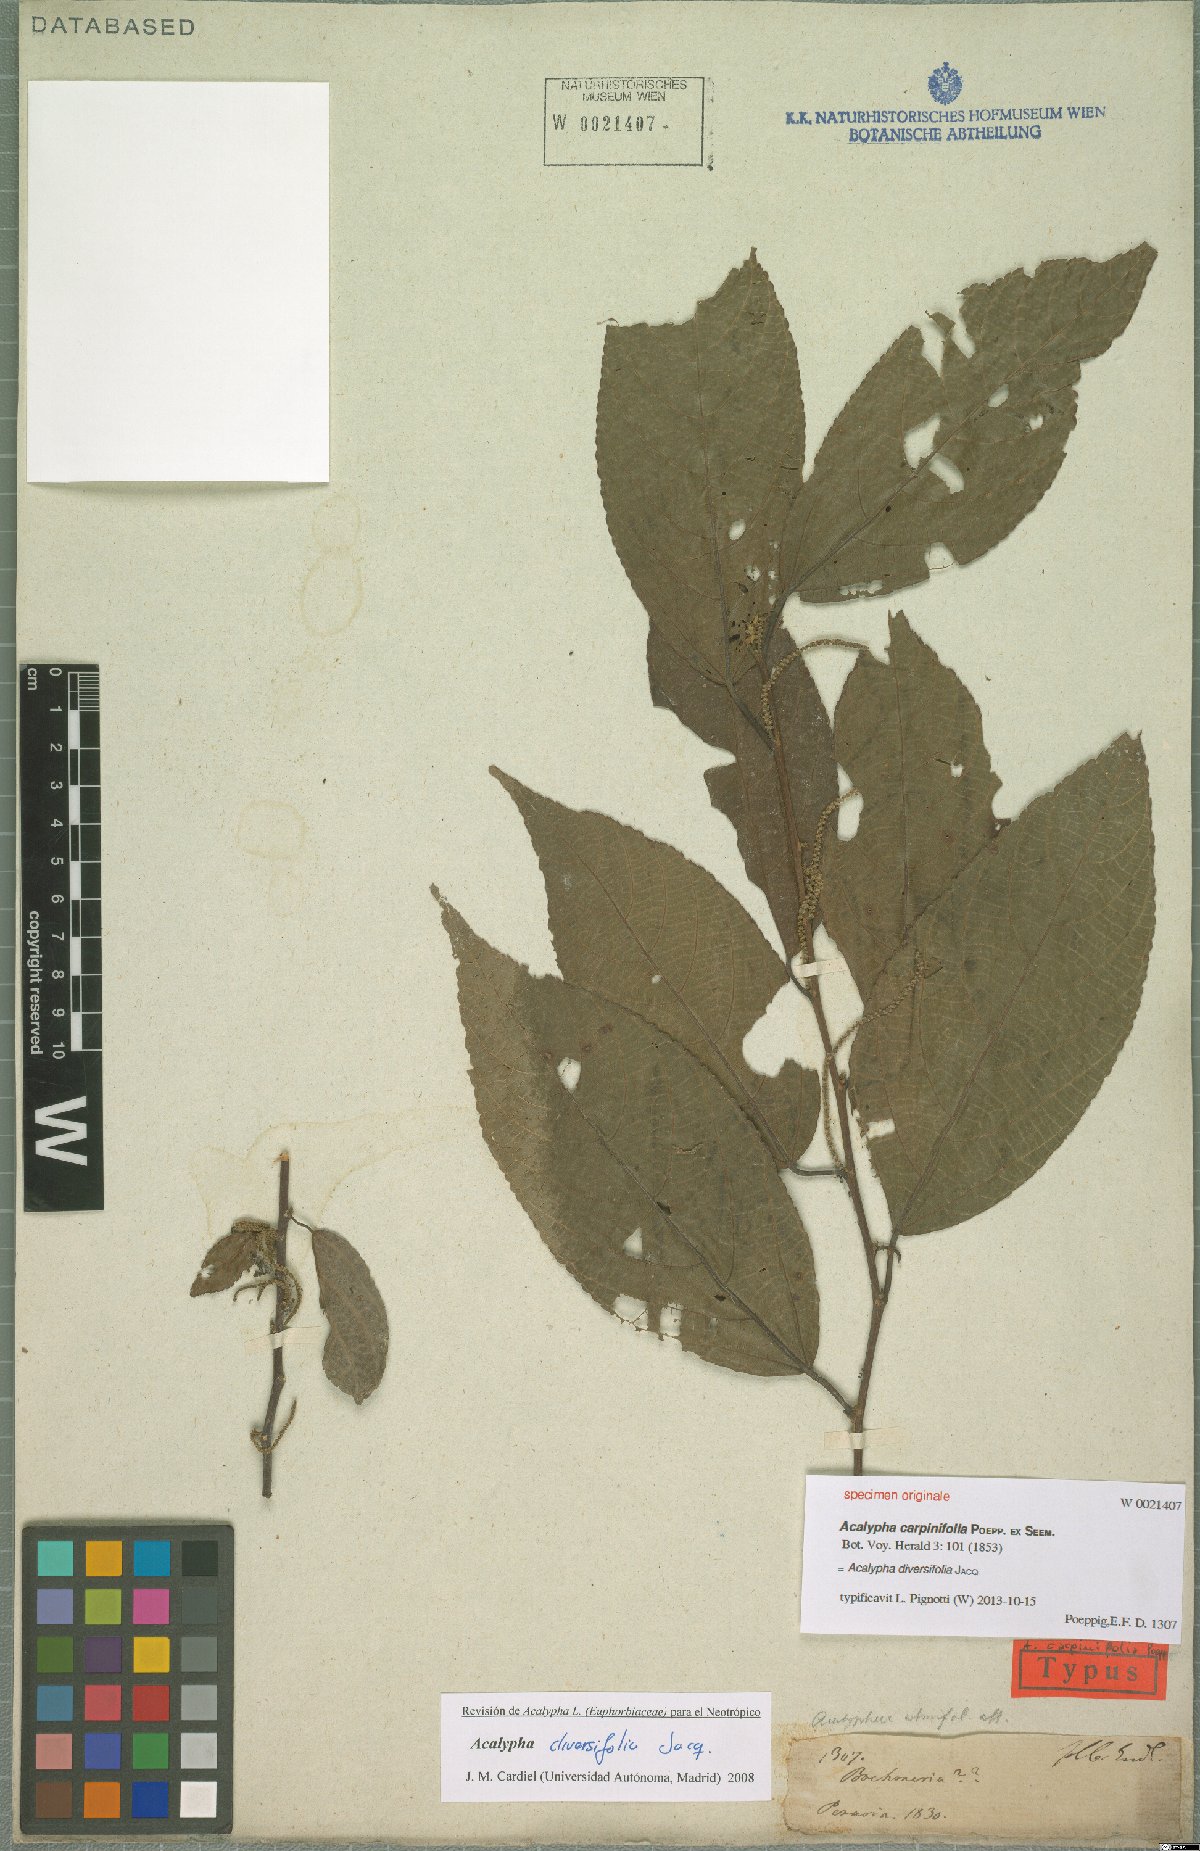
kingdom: Plantae
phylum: Tracheophyta
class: Magnoliopsida
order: Malpighiales
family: Euphorbiaceae
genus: Acalypha
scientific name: Acalypha diversifolia
